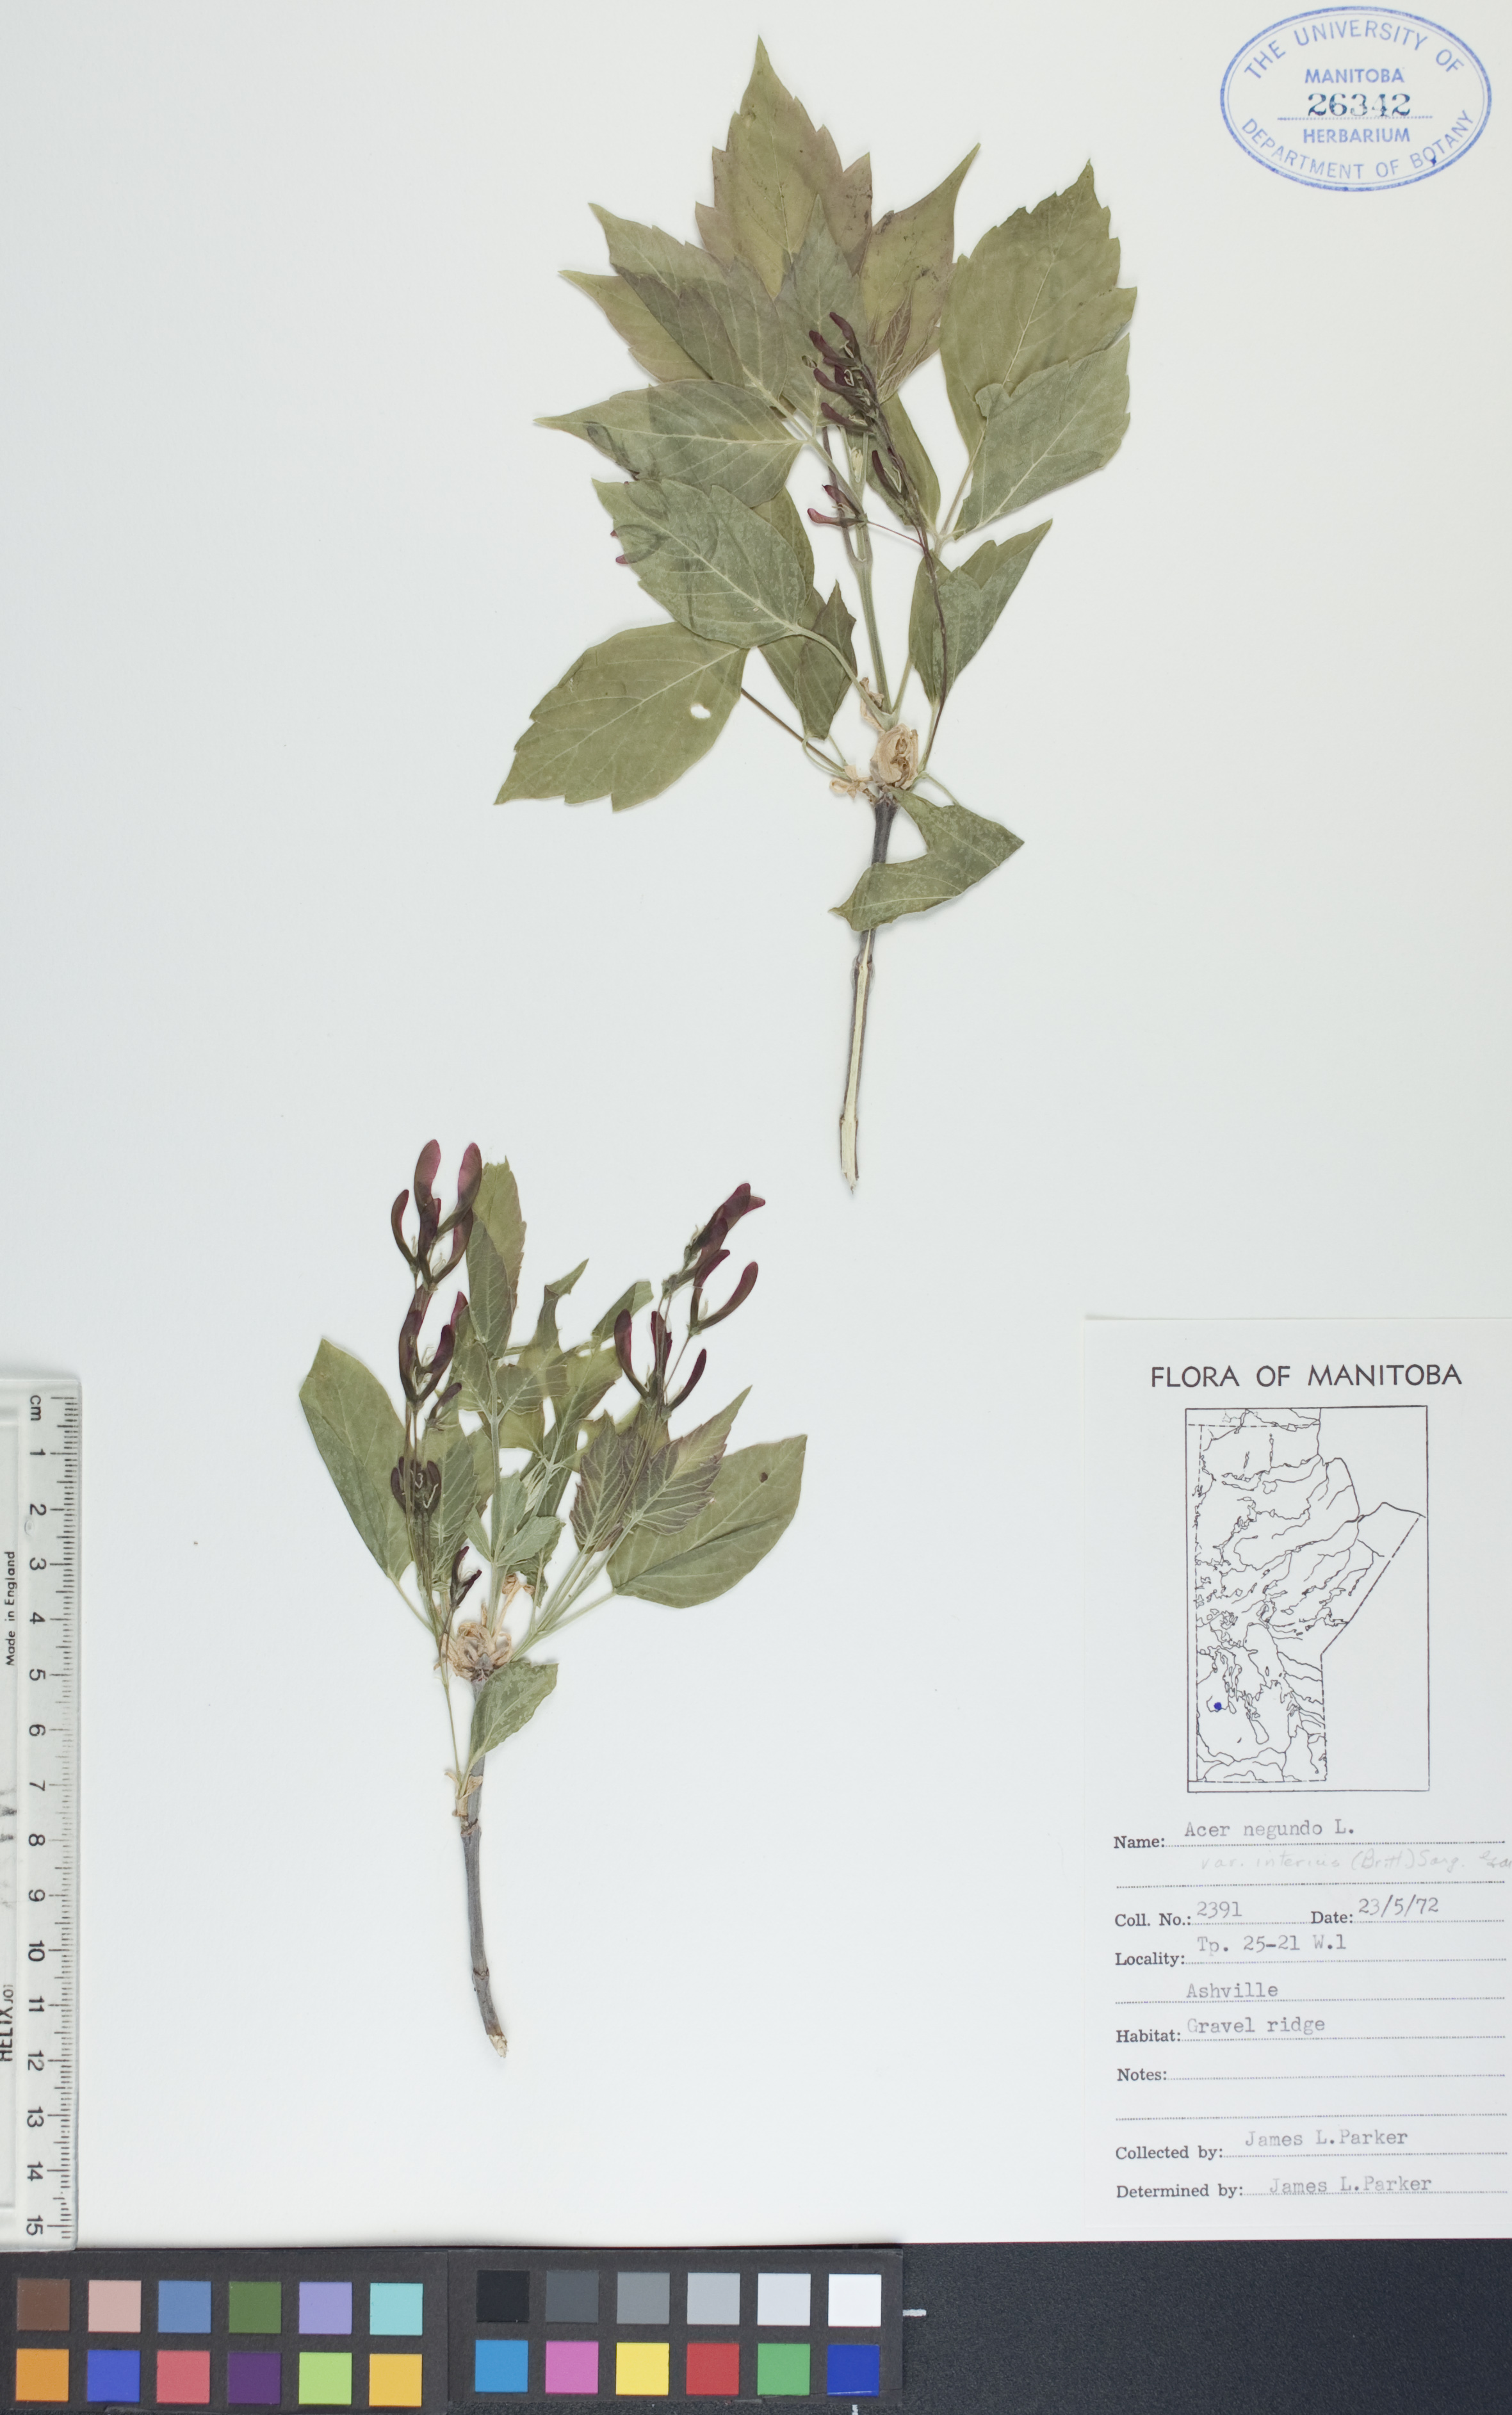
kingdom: Plantae
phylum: Tracheophyta
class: Magnoliopsida
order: Sapindales
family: Sapindaceae
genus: Acer
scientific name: Acer negundo
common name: Ashleaf maple
